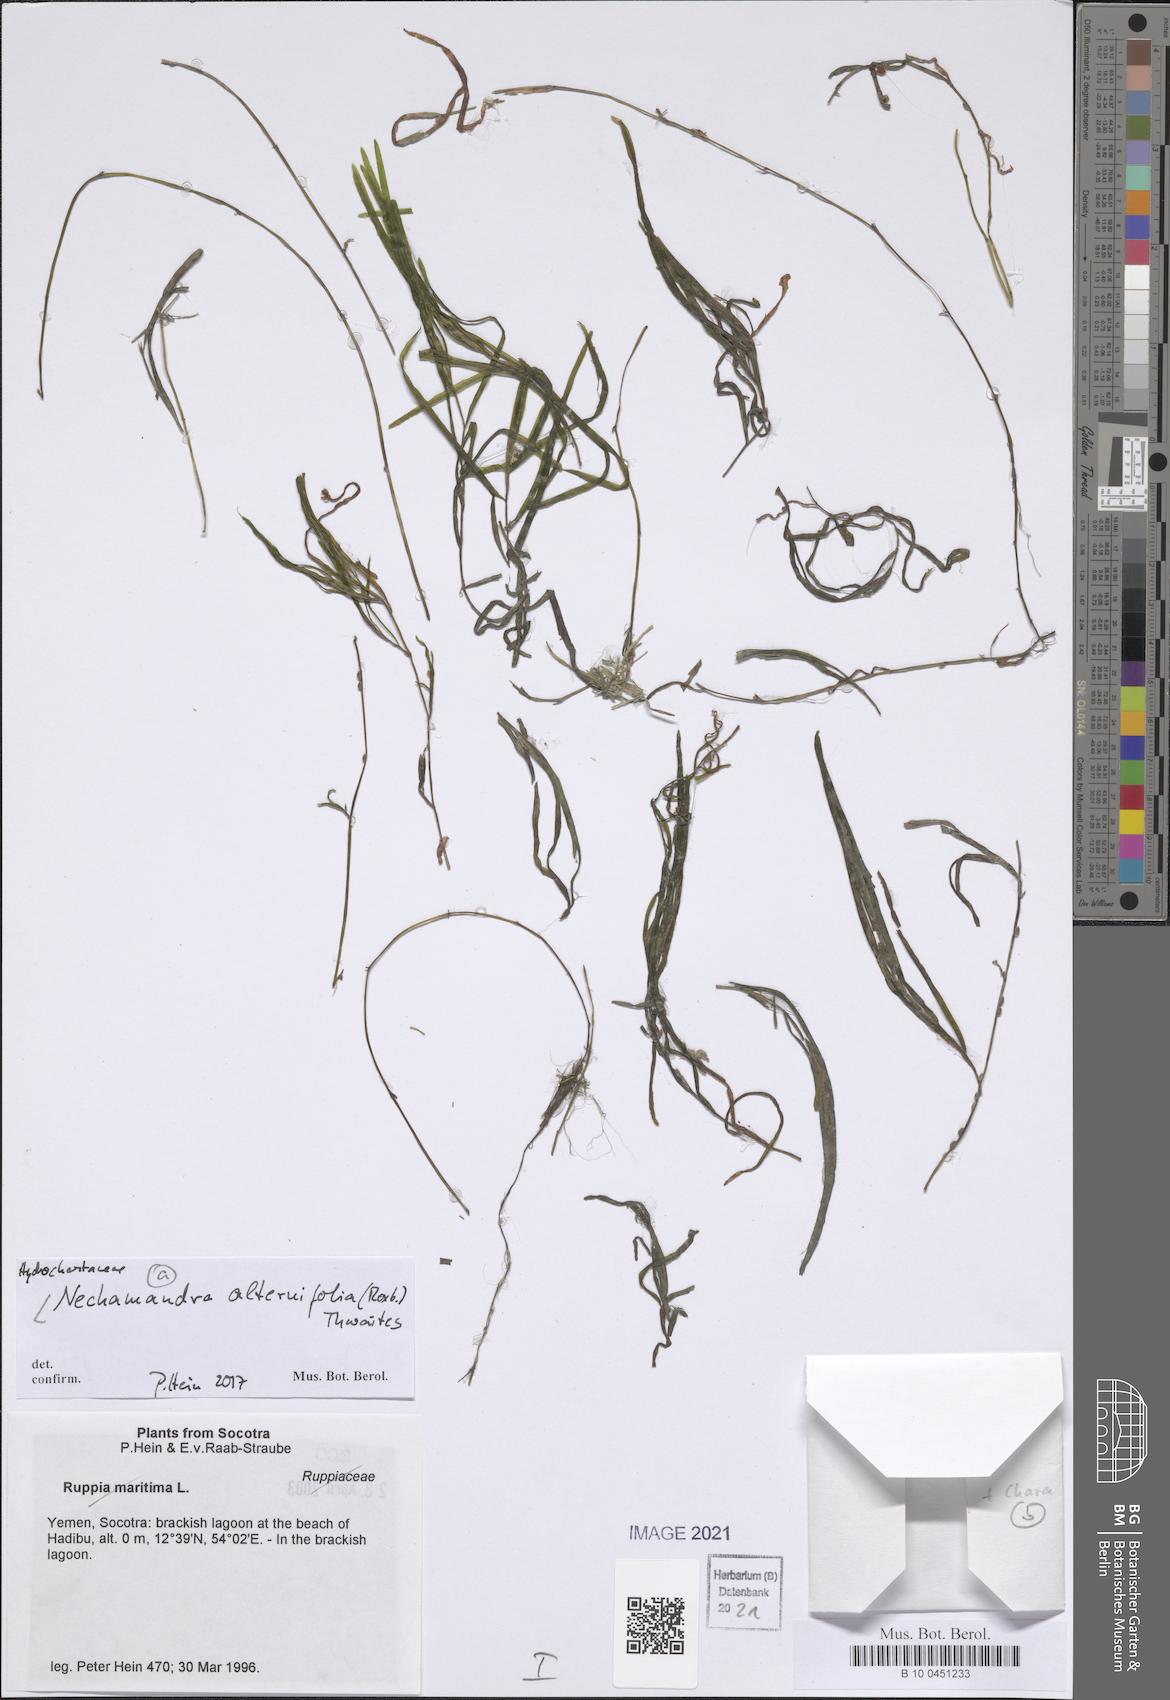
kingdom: Plantae
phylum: Tracheophyta
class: Liliopsida
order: Alismatales
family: Hydrocharitaceae
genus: Nechamandra
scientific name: Nechamandra alternifolia
